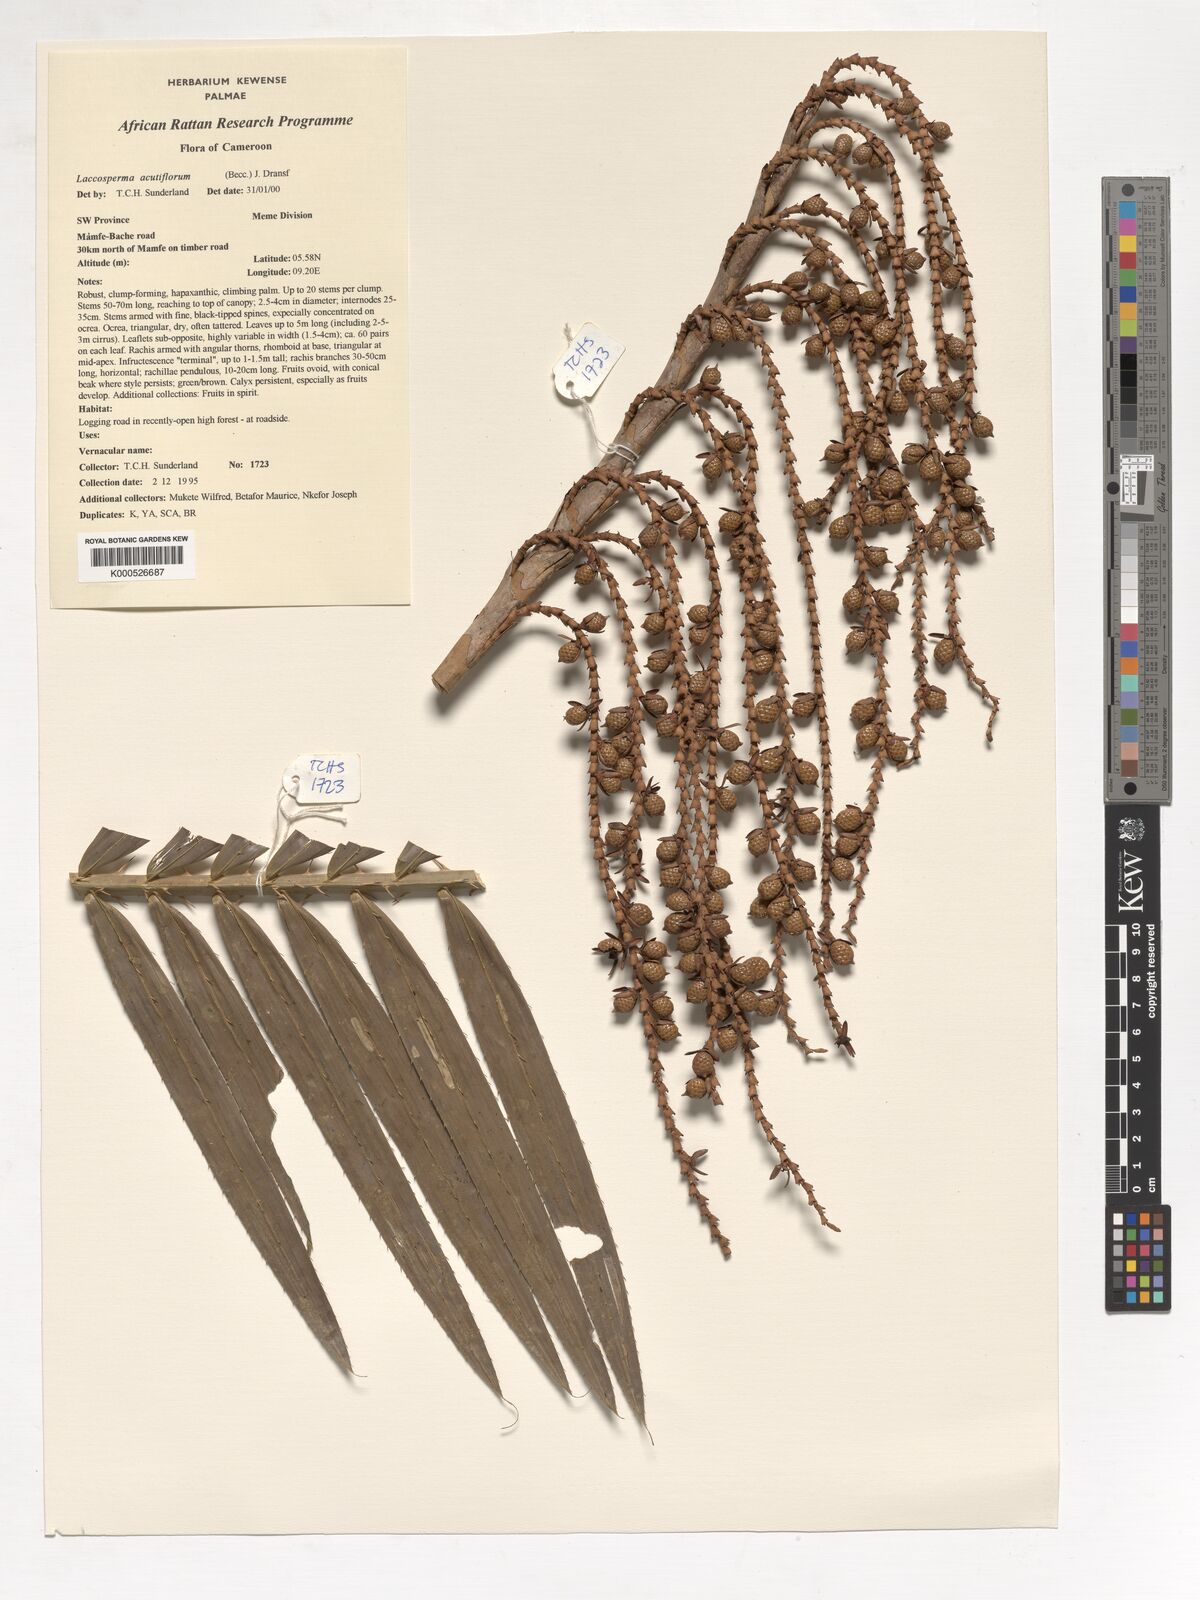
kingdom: Plantae
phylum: Tracheophyta
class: Liliopsida
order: Arecales
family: Arecaceae
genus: Laccosperma
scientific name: Laccosperma secundiflorum
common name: Rattan
